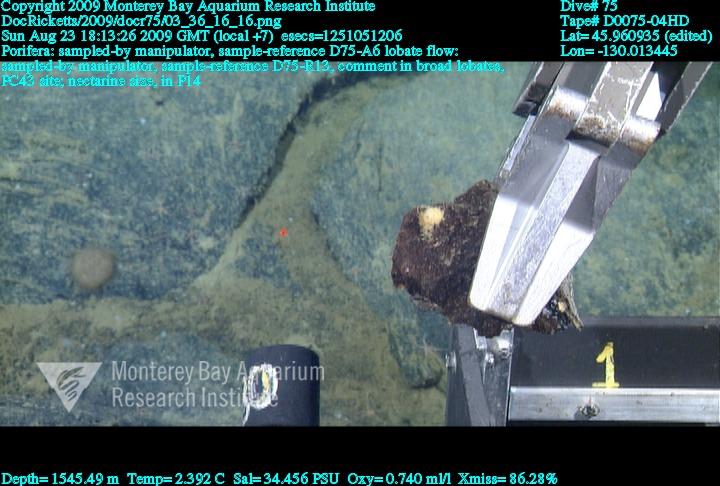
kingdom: Animalia
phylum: Porifera
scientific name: Porifera
